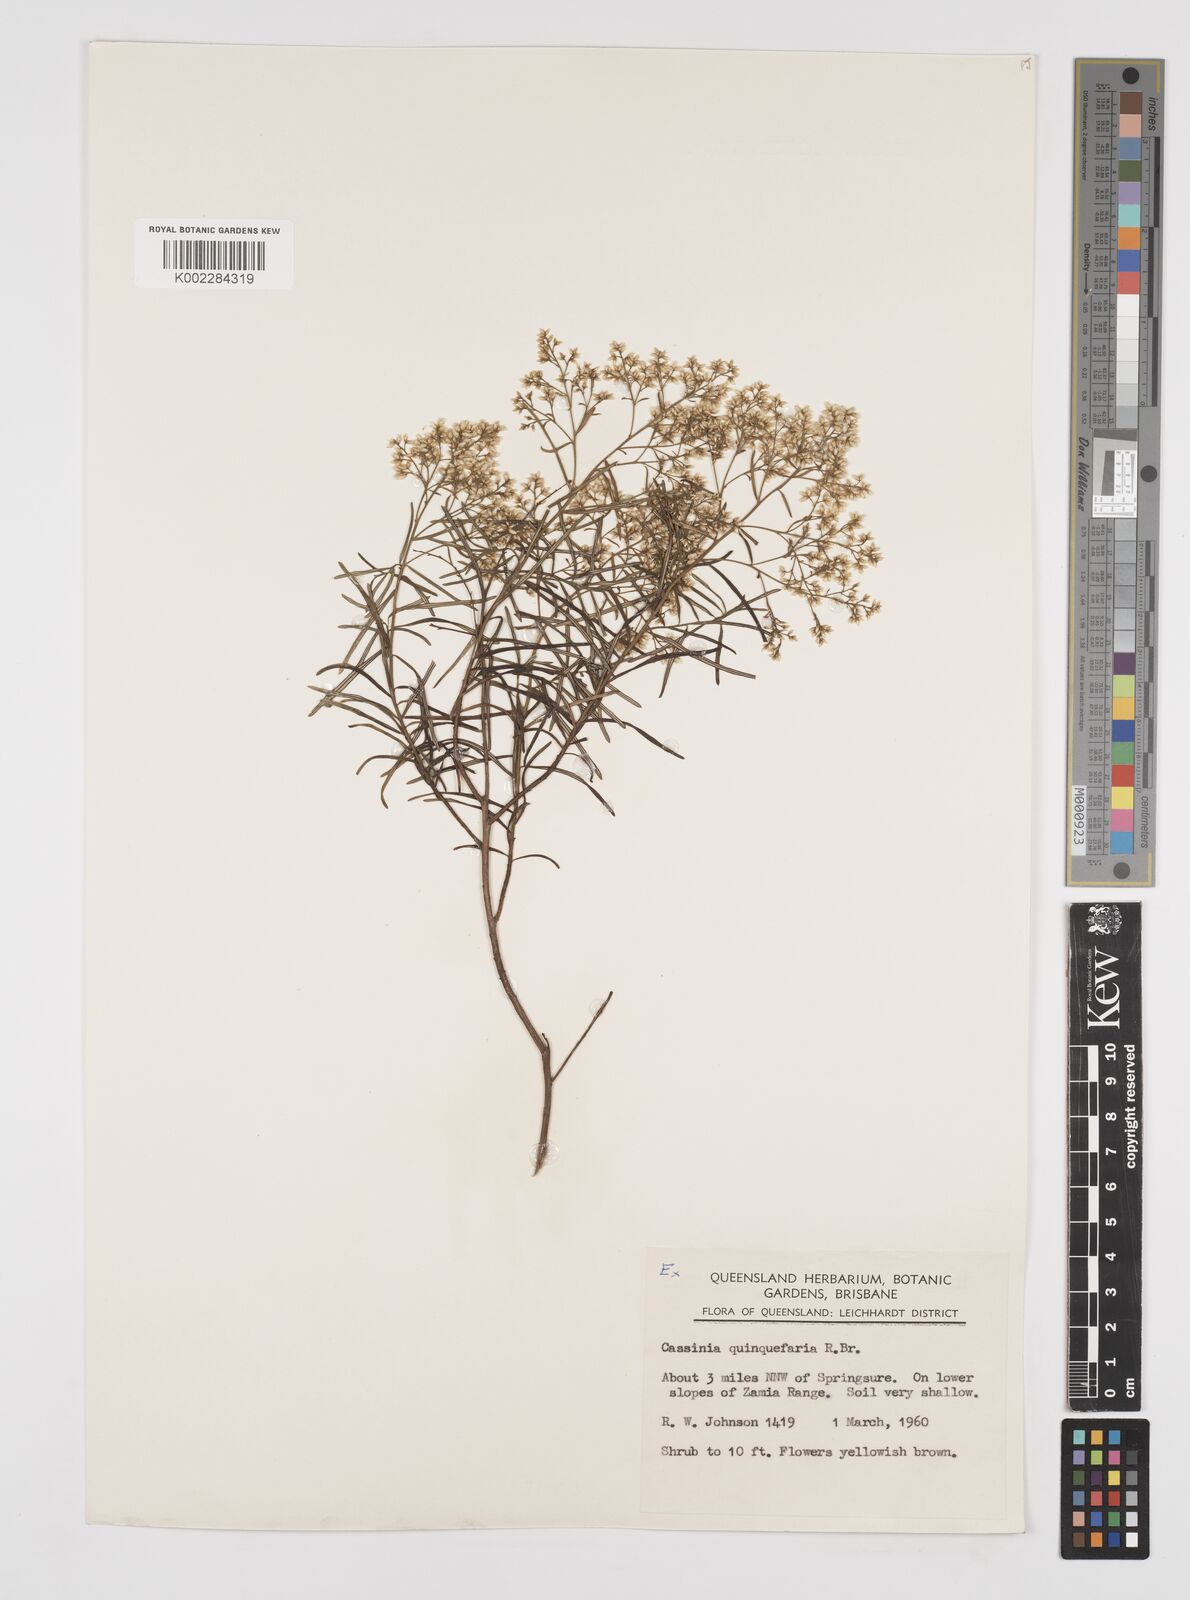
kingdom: Plantae
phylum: Tracheophyta
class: Magnoliopsida
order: Asterales
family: Asteraceae
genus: Cassinia
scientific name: Cassinia quinquefaria
